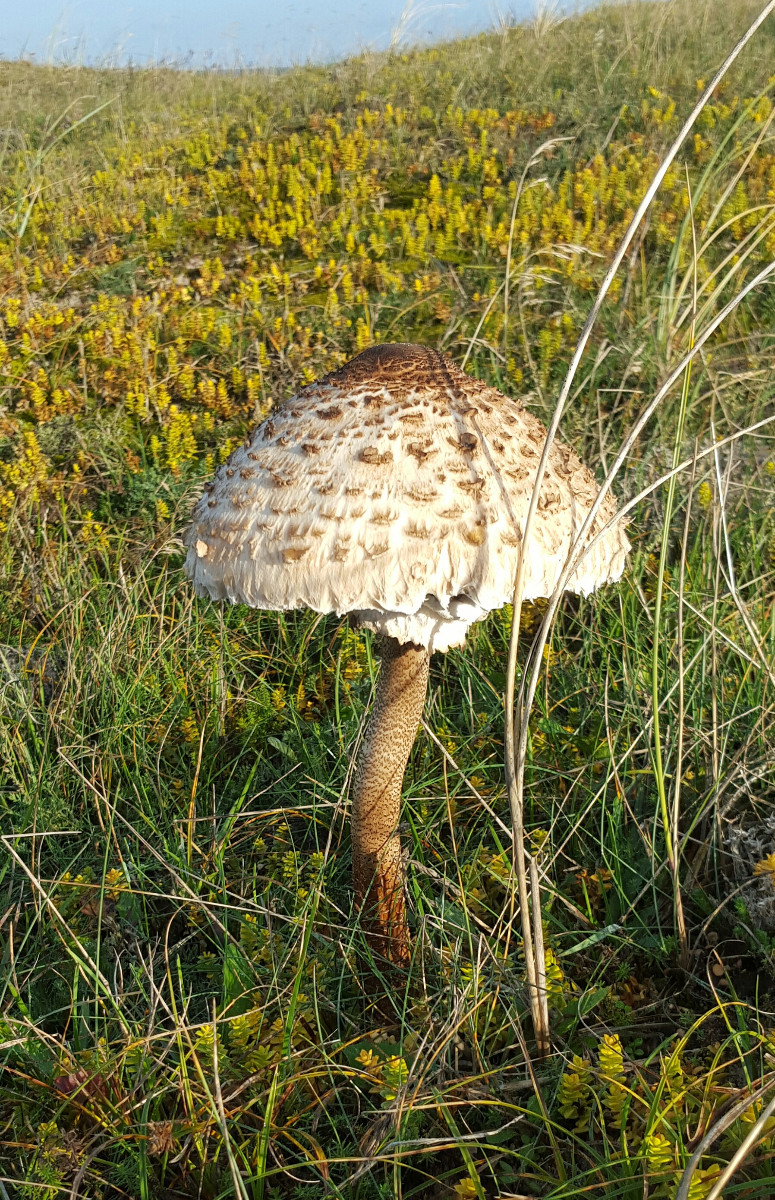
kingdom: Fungi
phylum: Basidiomycota
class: Agaricomycetes
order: Agaricales
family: Agaricaceae
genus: Macrolepiota
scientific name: Macrolepiota procera
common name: stor kæmpeparasolhat
